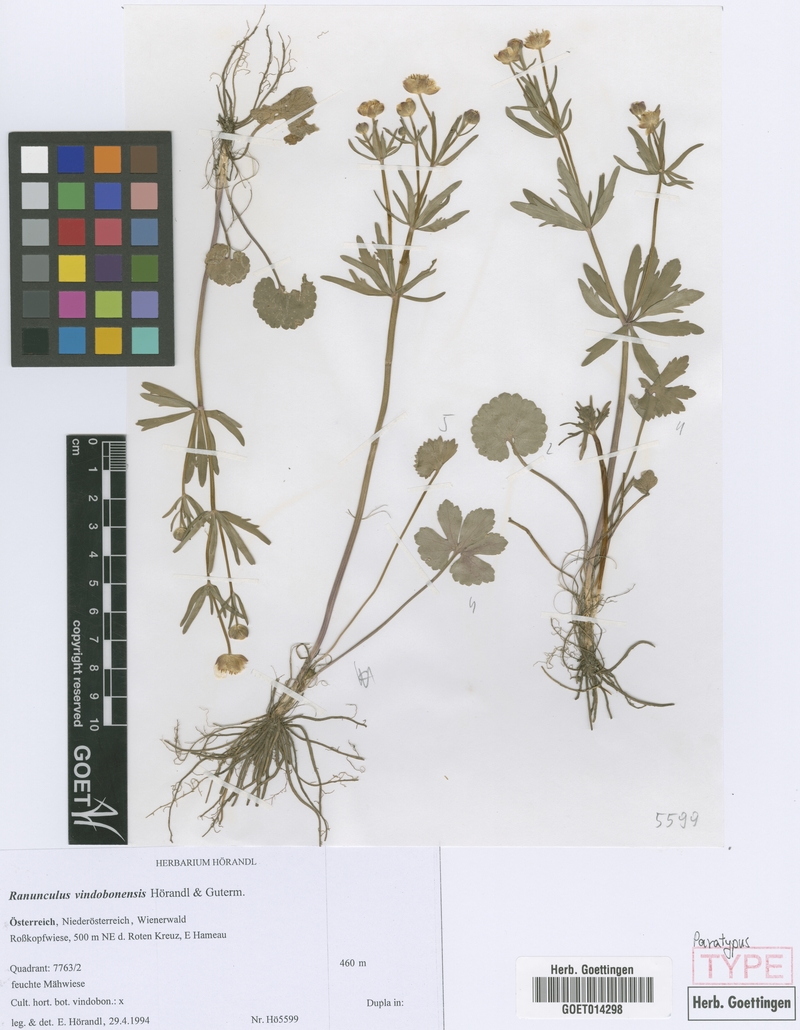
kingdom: Plantae
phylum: Tracheophyta
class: Magnoliopsida
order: Ranunculales
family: Ranunculaceae
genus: Ranunculus
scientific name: Ranunculus vindobonensis
